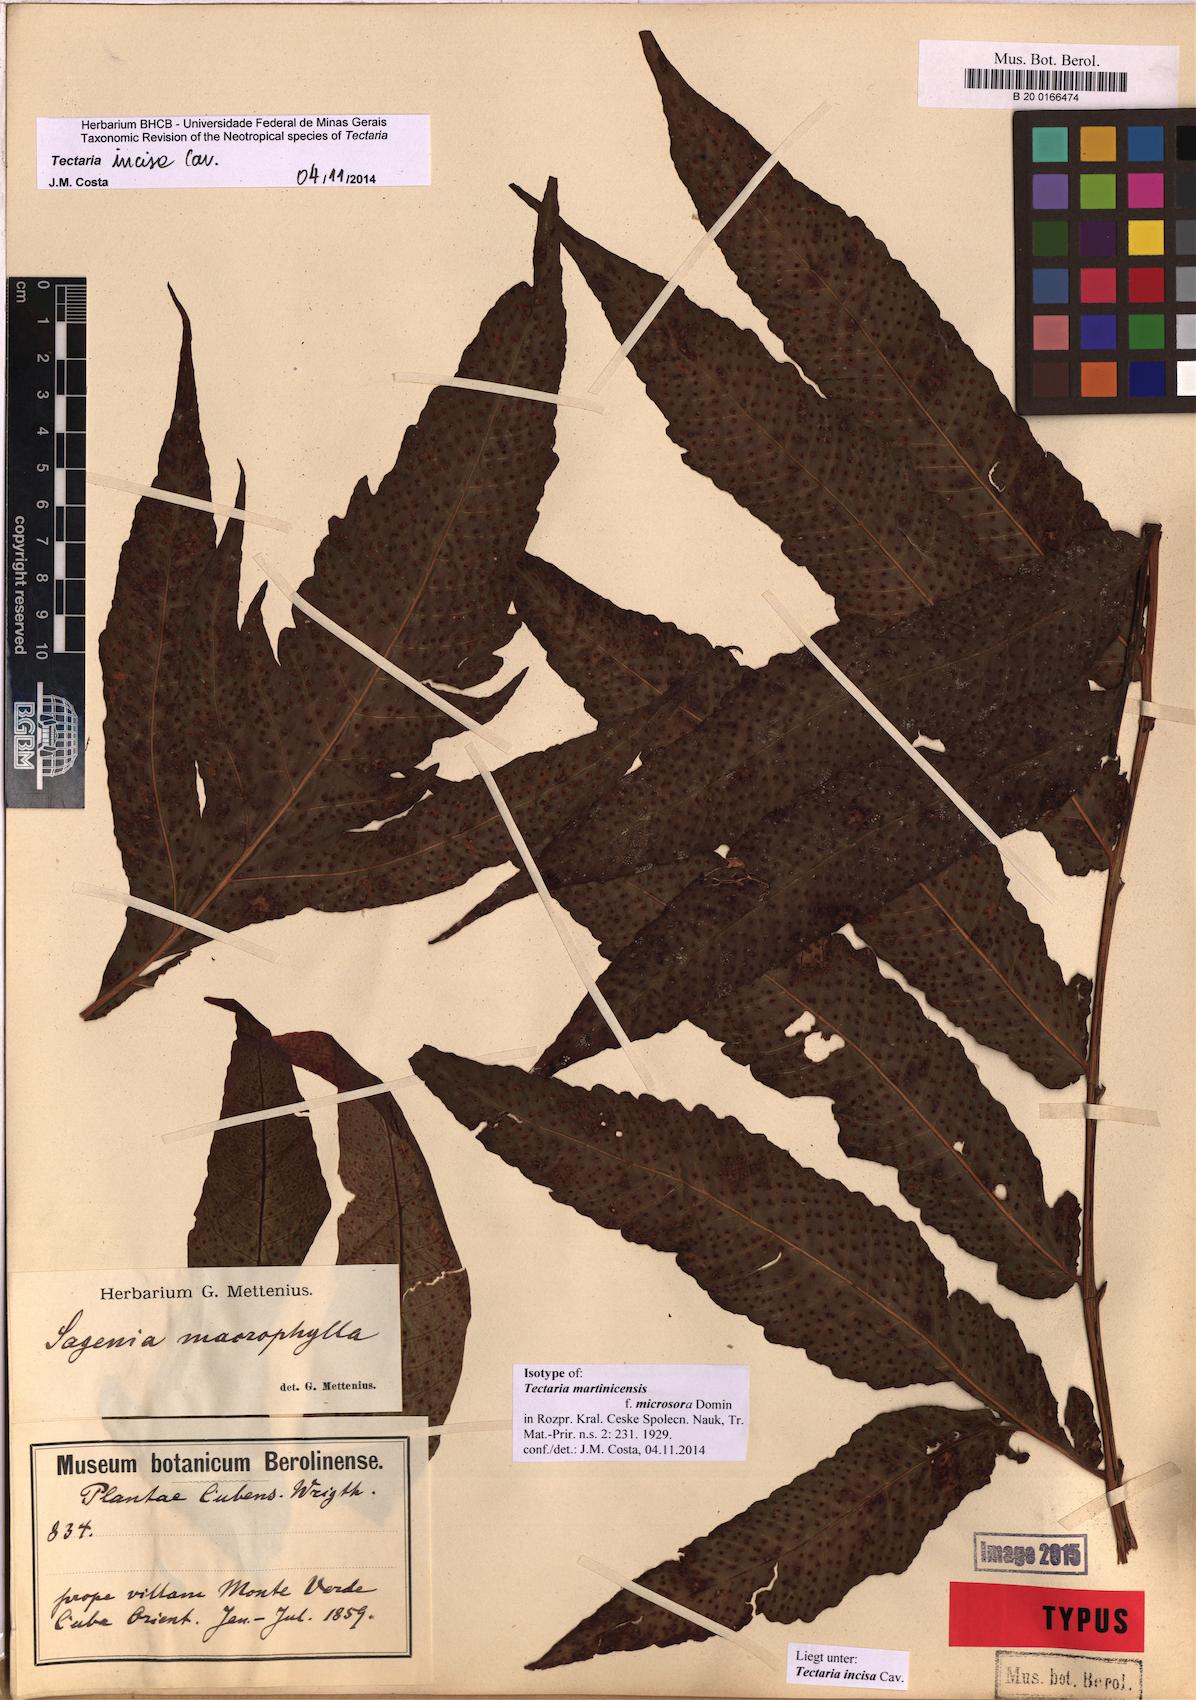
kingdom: Plantae
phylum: Tracheophyta
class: Polypodiopsida
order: Polypodiales
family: Tectariaceae
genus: Tectaria
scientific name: Tectaria incisa
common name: Incised halberd fern
